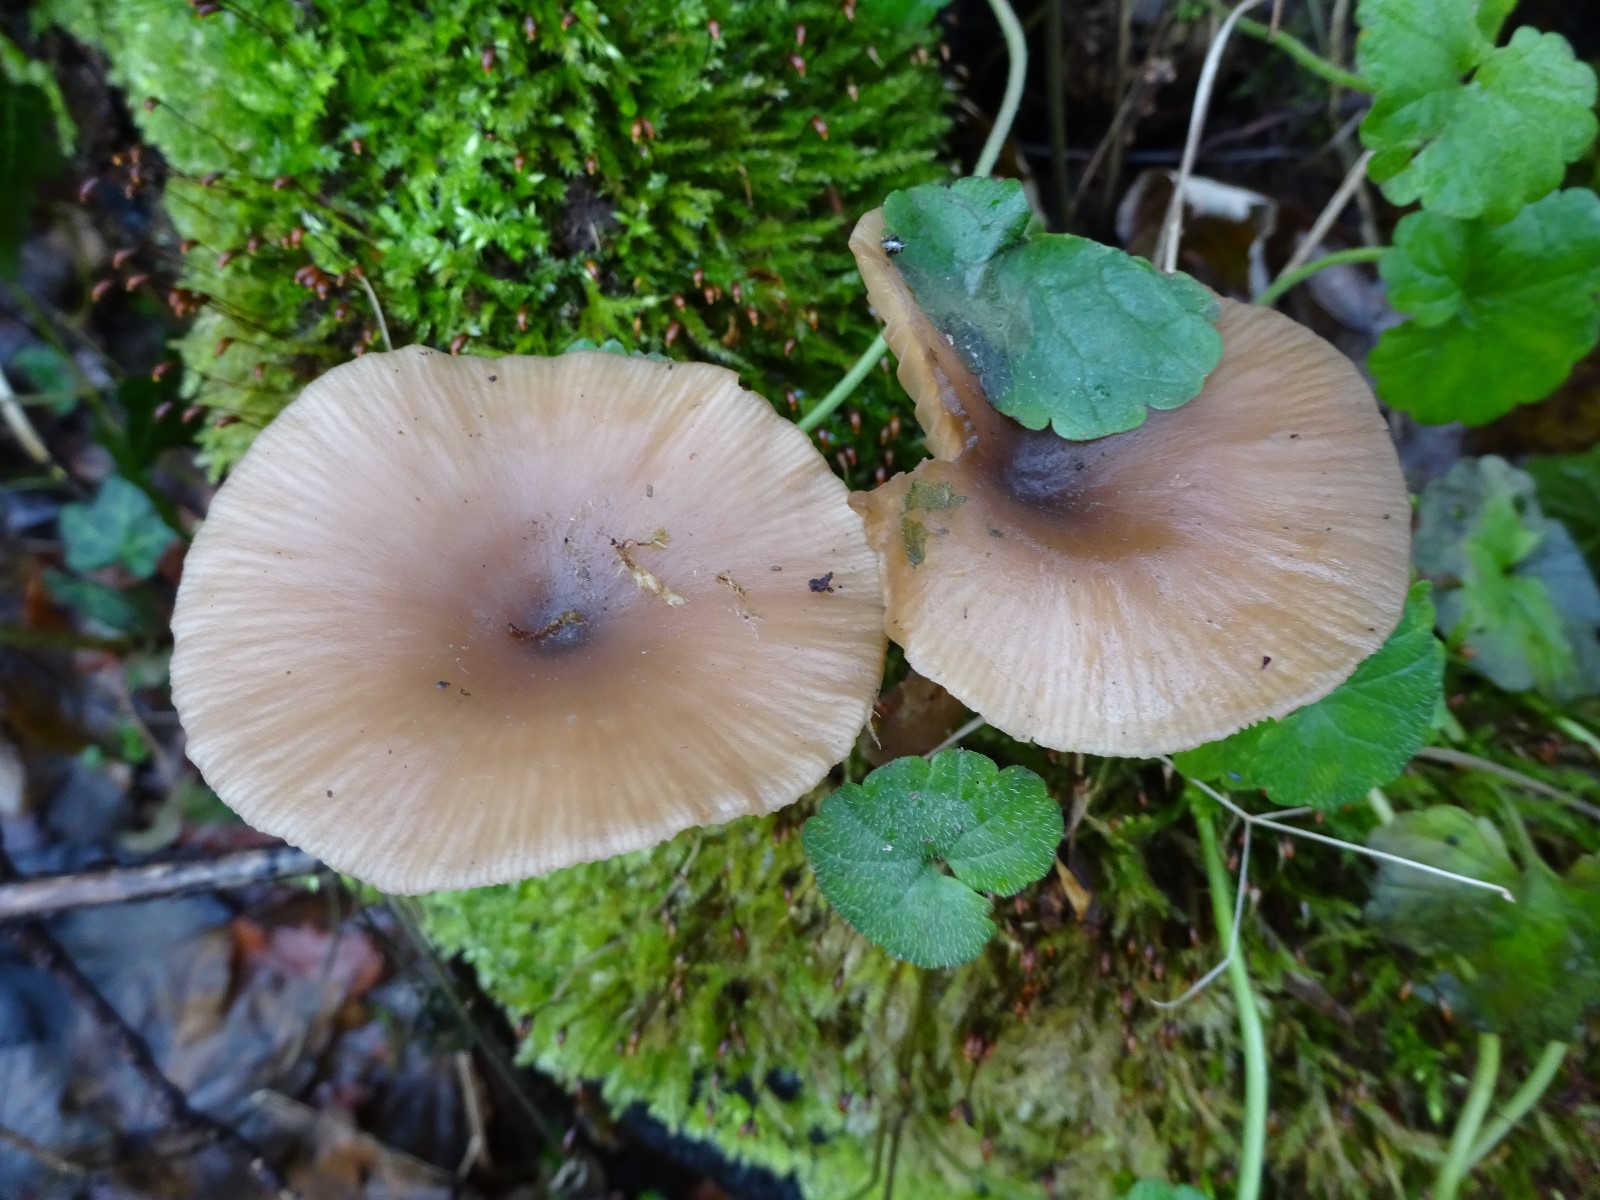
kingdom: Fungi
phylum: Basidiomycota
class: Agaricomycetes
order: Agaricales
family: Pseudoclitocybaceae
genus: Pseudoclitocybe
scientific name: Pseudoclitocybe cyathiformis
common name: almindelig bægertragthat
